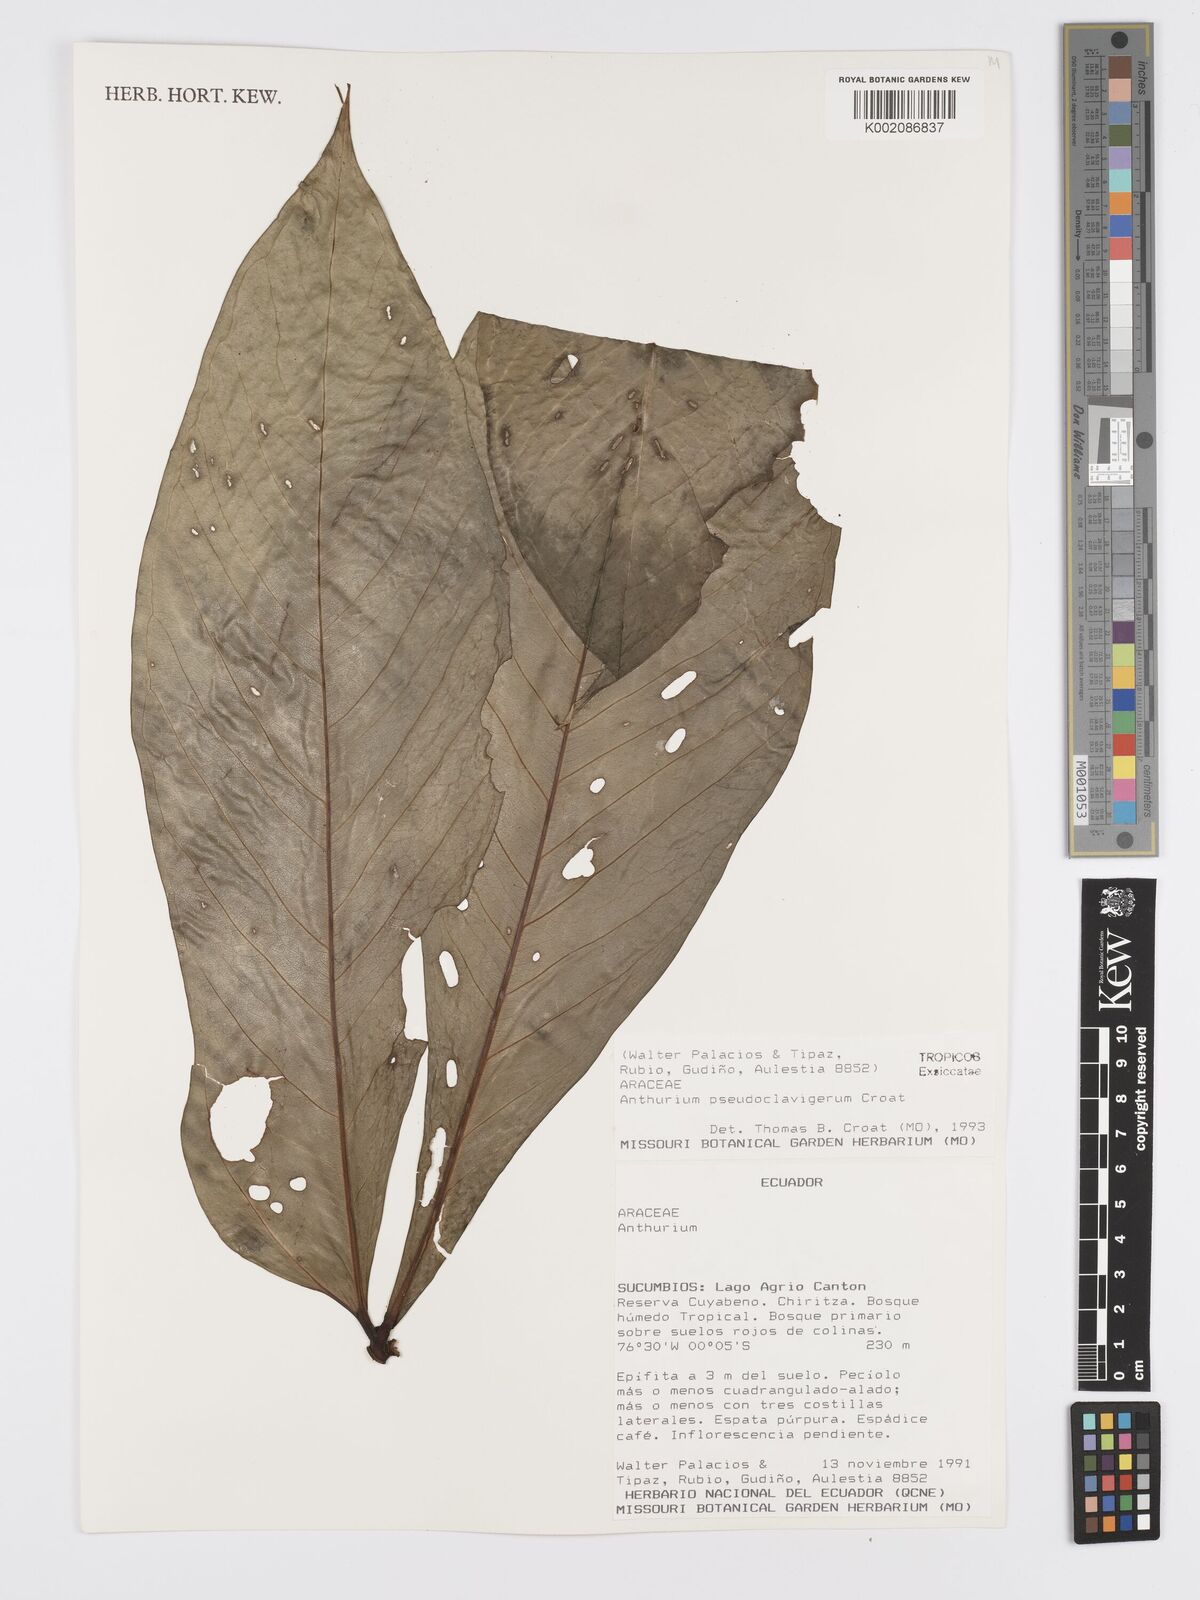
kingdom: Plantae
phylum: Tracheophyta
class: Liliopsida
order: Alismatales
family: Araceae
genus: Anthurium
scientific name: Anthurium
